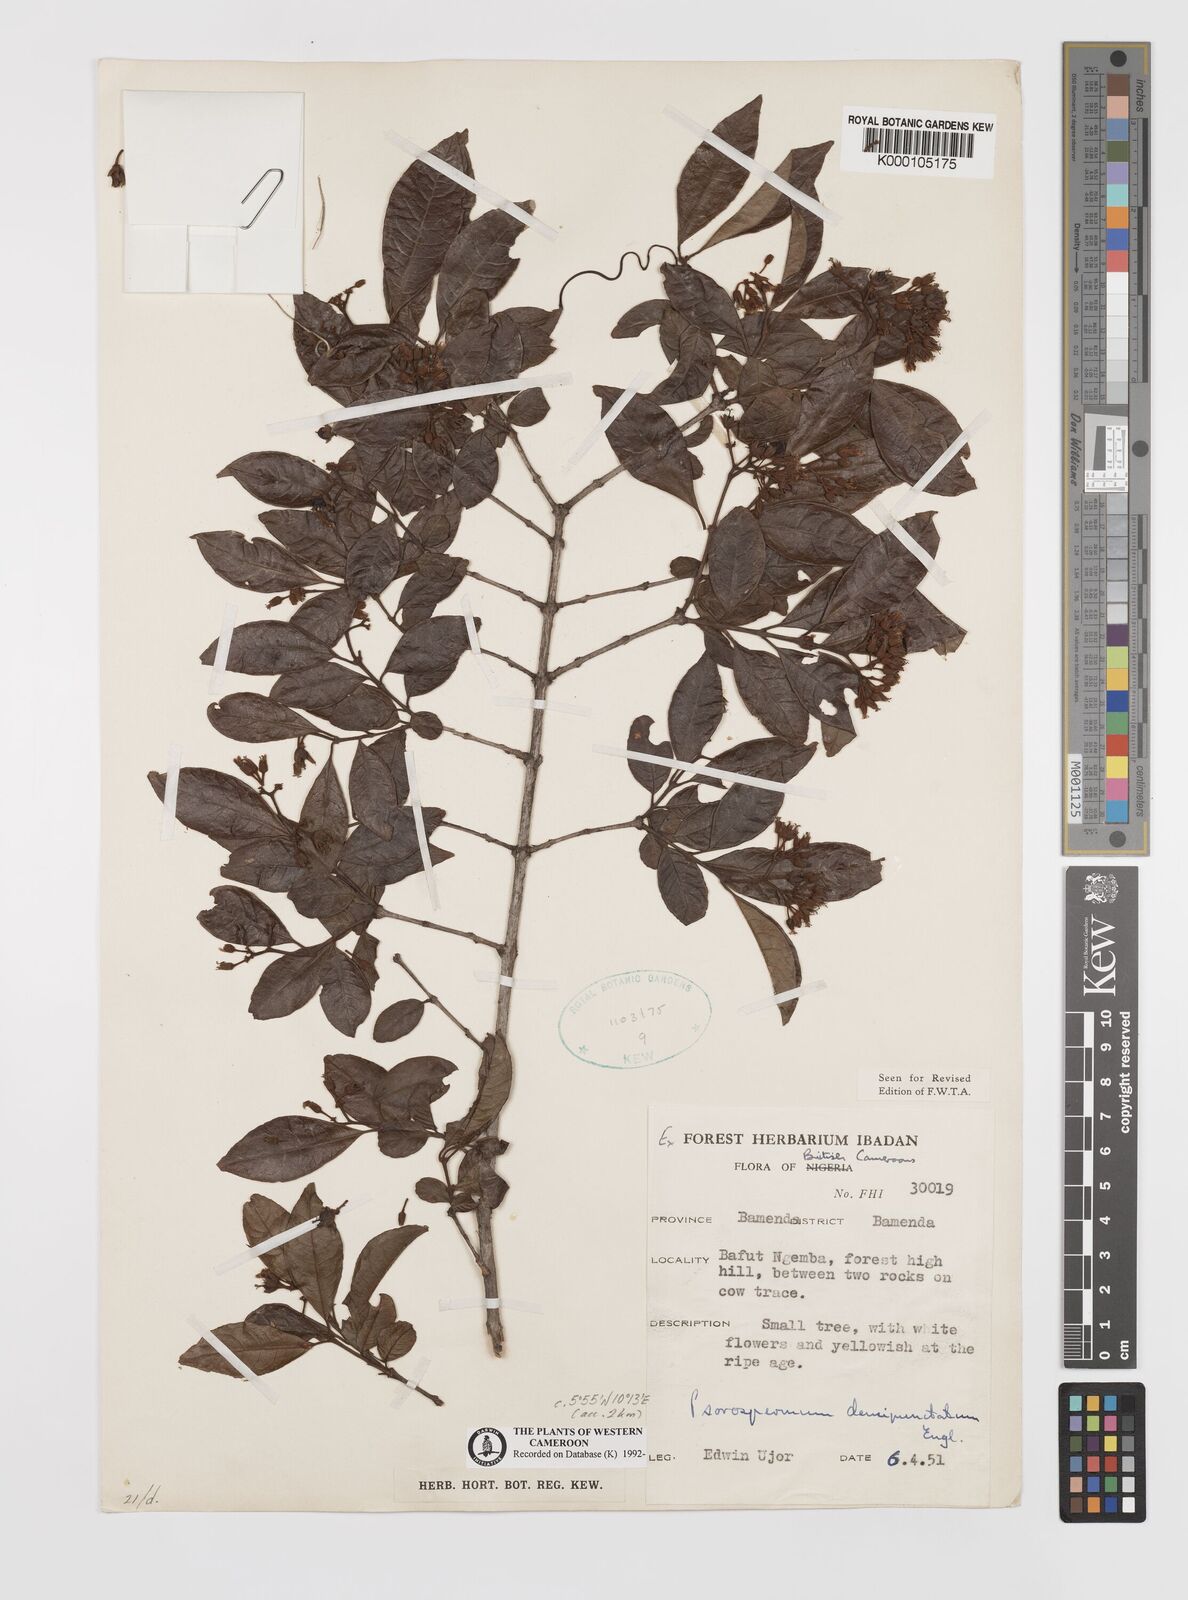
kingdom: Plantae
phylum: Tracheophyta
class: Magnoliopsida
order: Malpighiales
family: Hypericaceae
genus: Psorospermum
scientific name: Psorospermum densipunctatum
